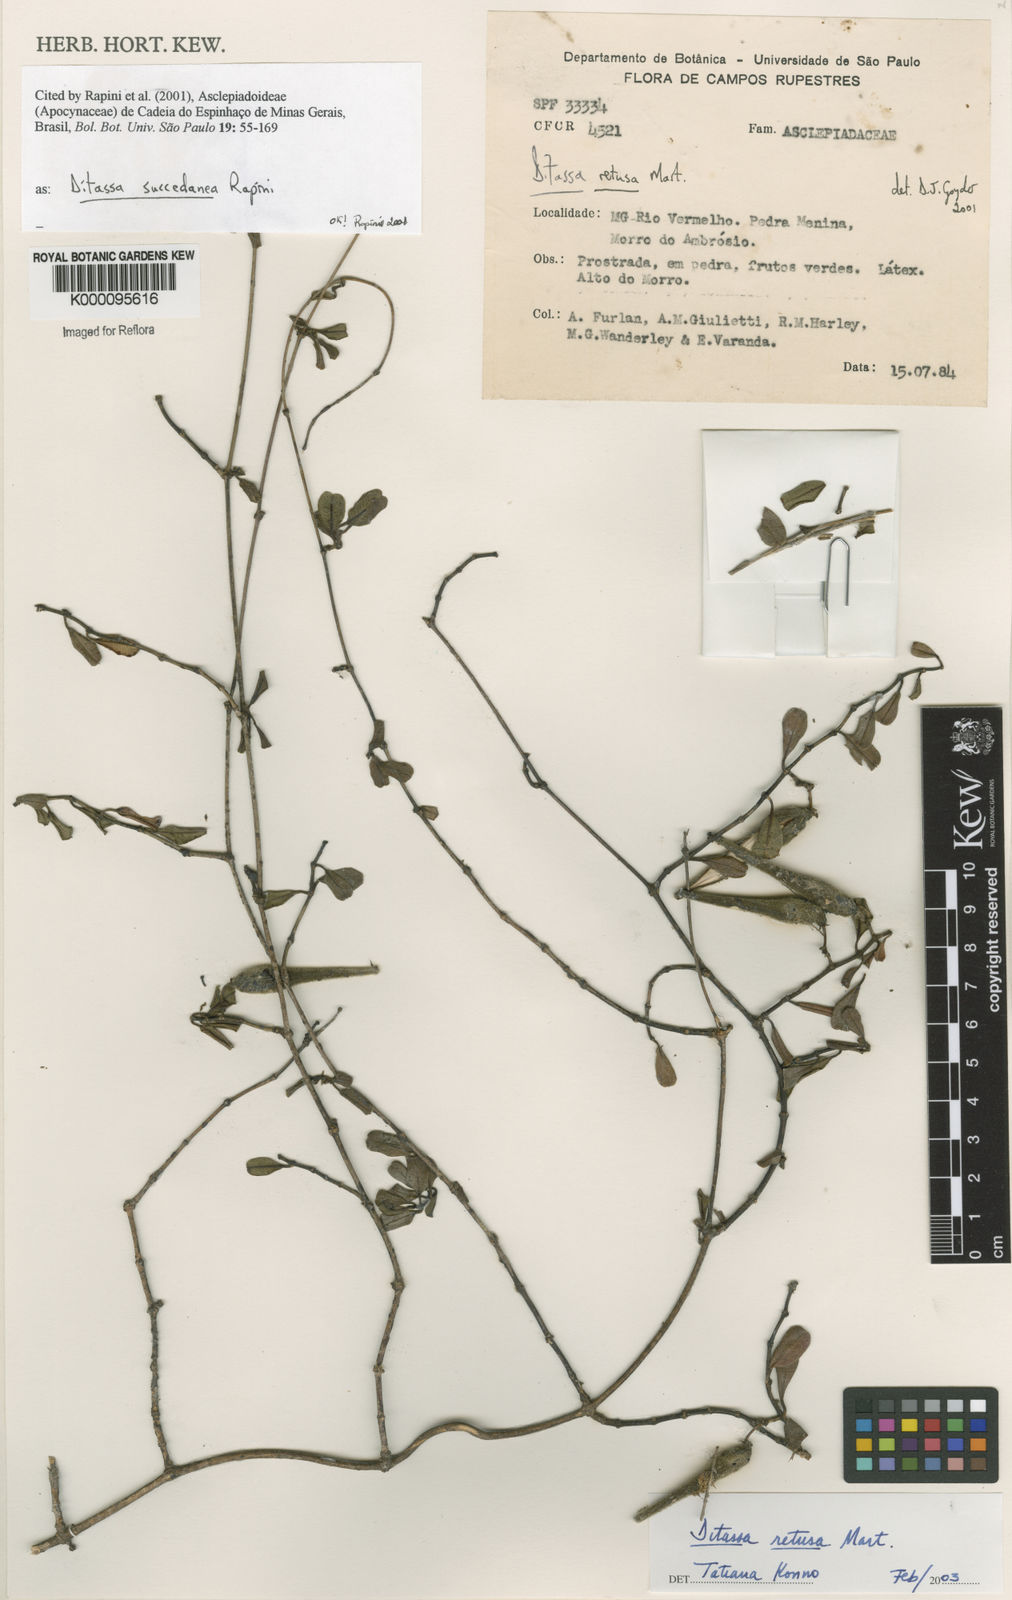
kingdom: Plantae
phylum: Tracheophyta
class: Magnoliopsida
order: Gentianales
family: Apocynaceae
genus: Ditassa
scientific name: Ditassa retusa
